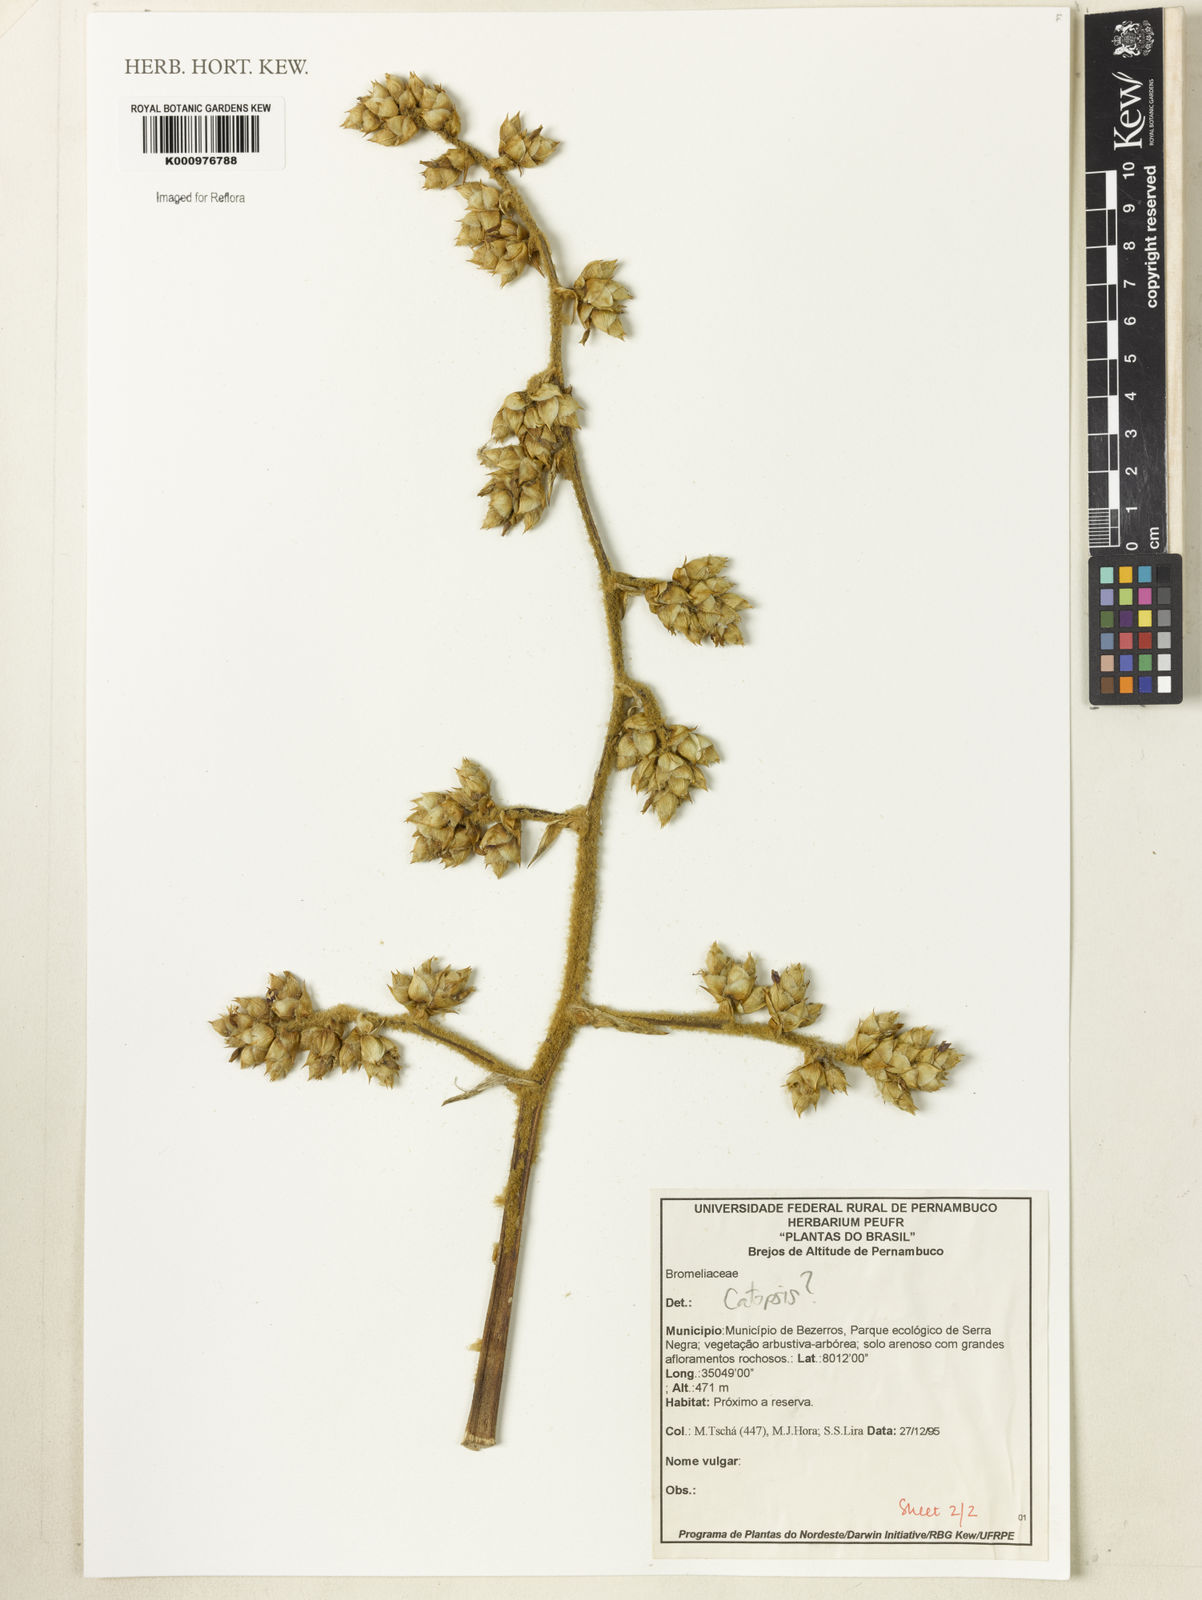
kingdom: Plantae
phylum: Tracheophyta
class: Liliopsida
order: Poales
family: Bromeliaceae
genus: Catopsis
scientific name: Catopsis
